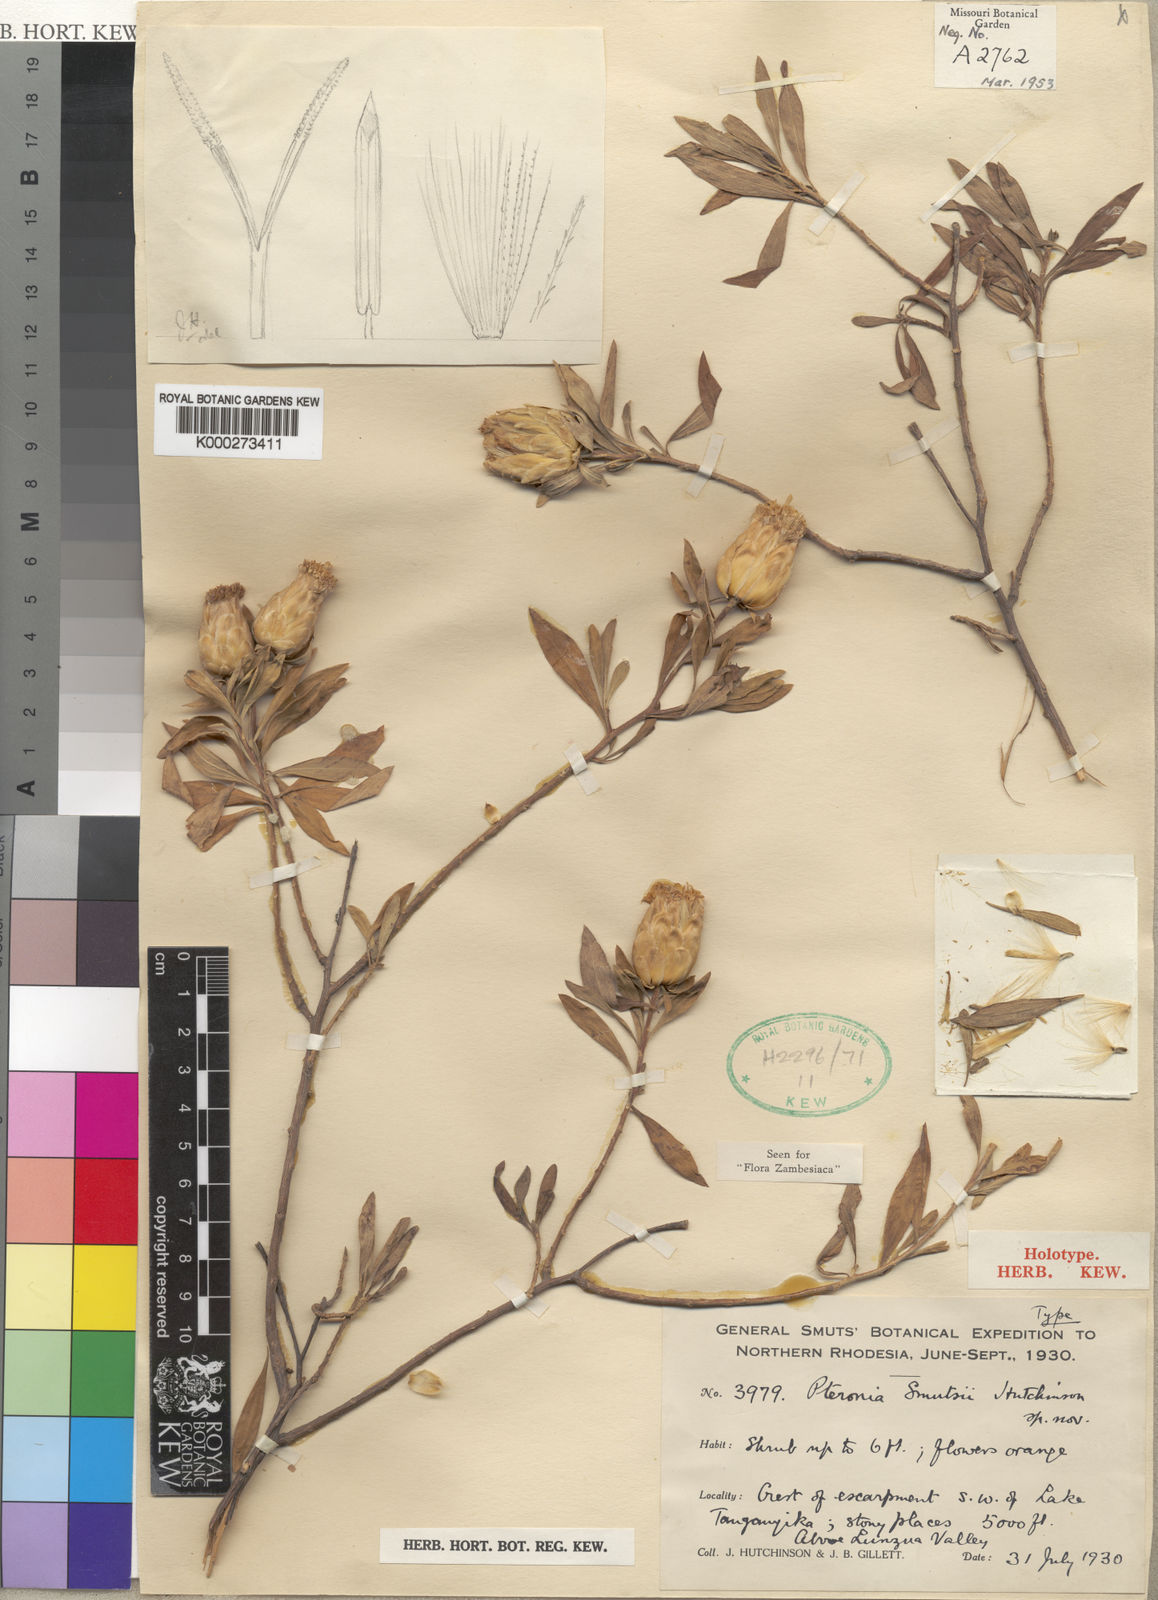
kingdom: Plantae
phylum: Tracheophyta
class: Magnoliopsida
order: Asterales
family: Asteraceae
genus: Pteronia
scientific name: Pteronia smutsii
